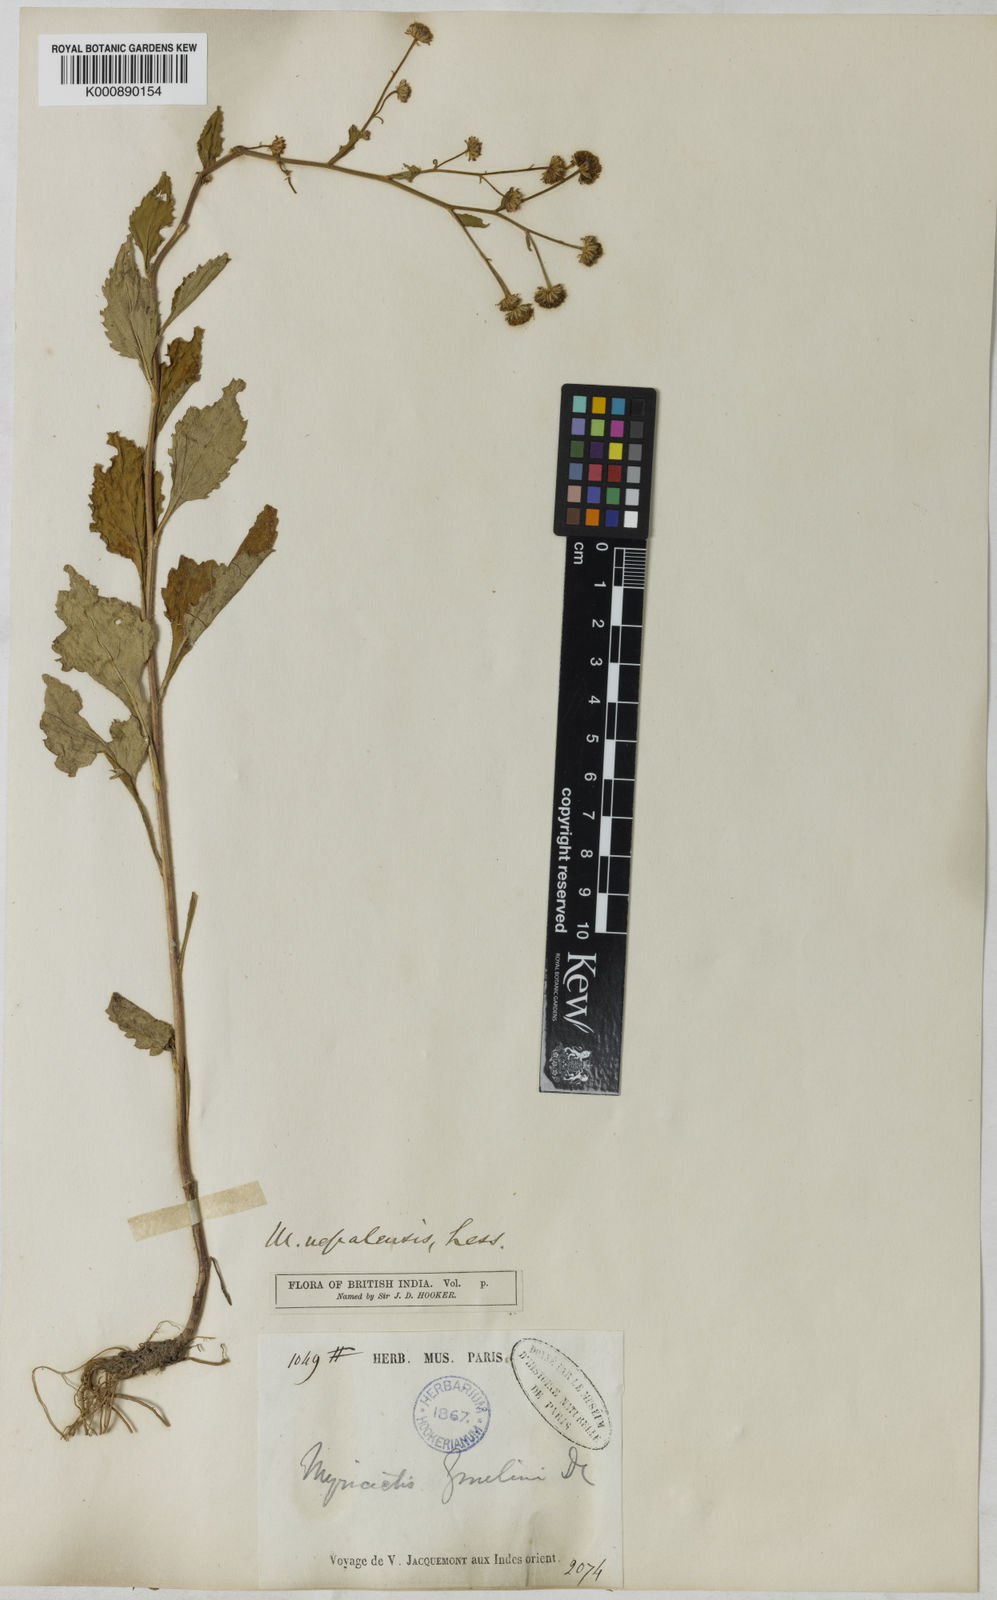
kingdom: Plantae
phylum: Tracheophyta
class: Magnoliopsida
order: Asterales
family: Asteraceae
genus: Myriactis
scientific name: Myriactis
